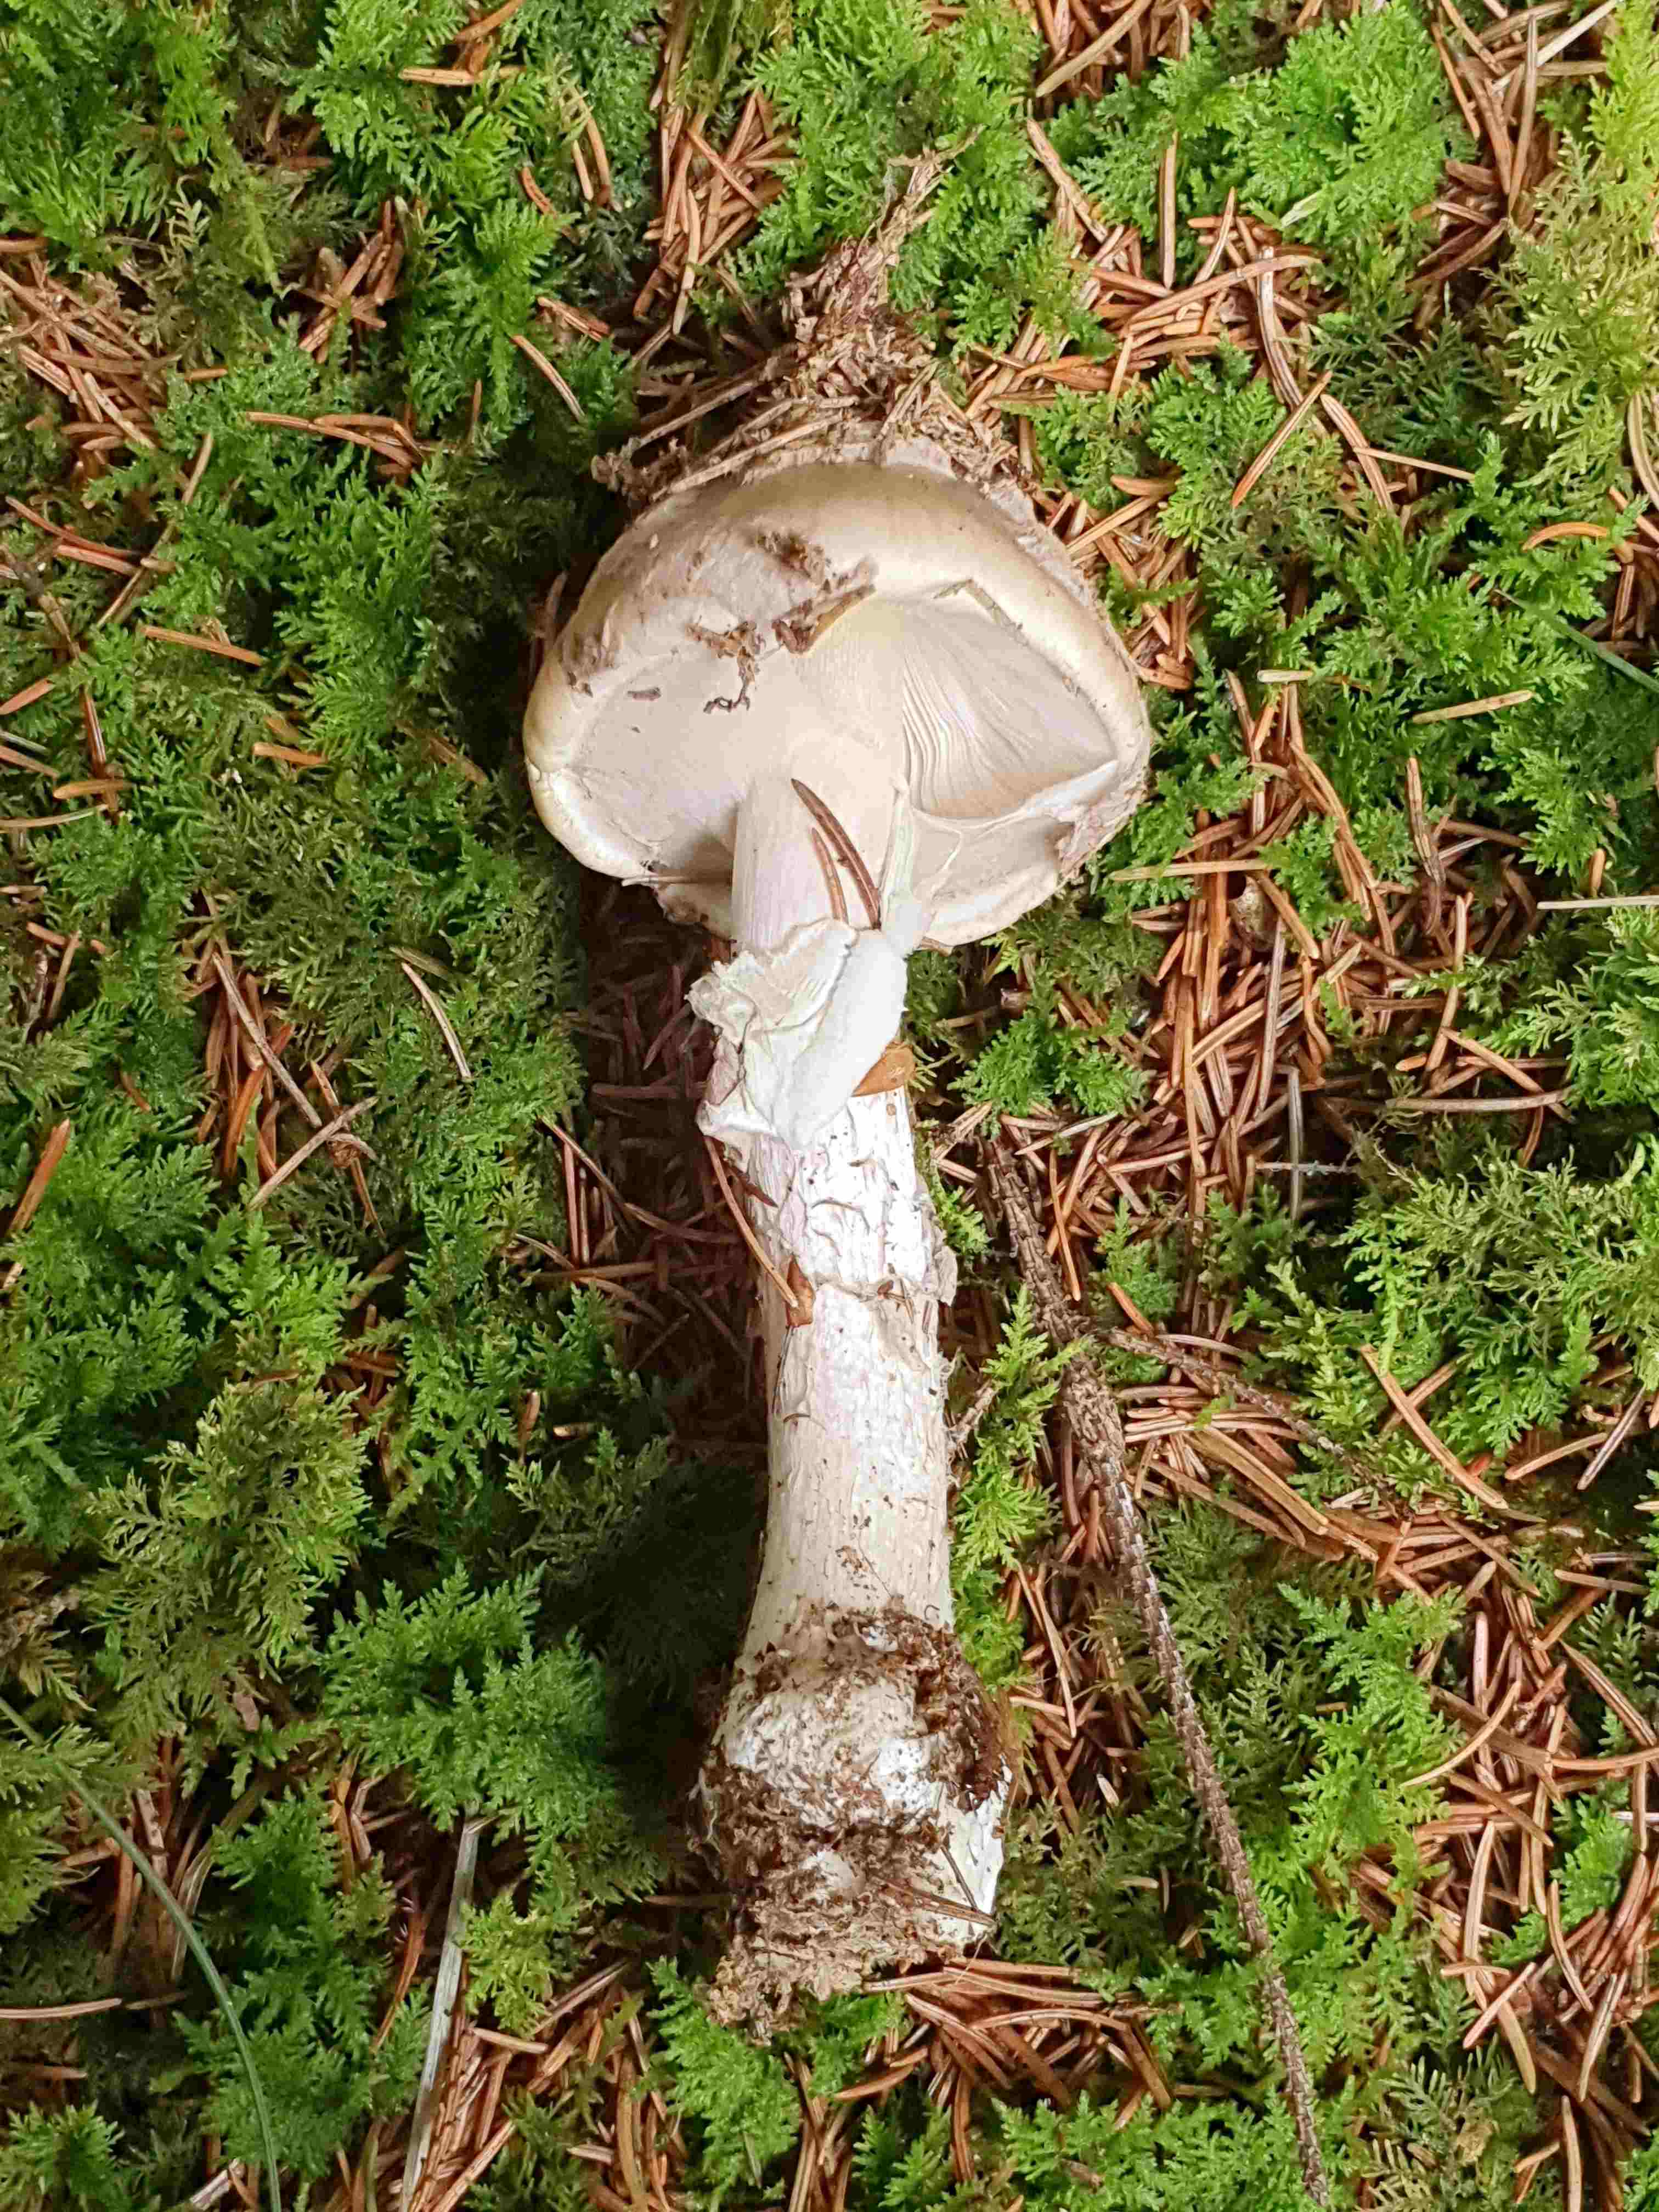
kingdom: Fungi
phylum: Basidiomycota
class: Agaricomycetes
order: Agaricales
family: Amanitaceae
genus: Amanita
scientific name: Amanita porphyria
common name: porfyr-fluesvamp
